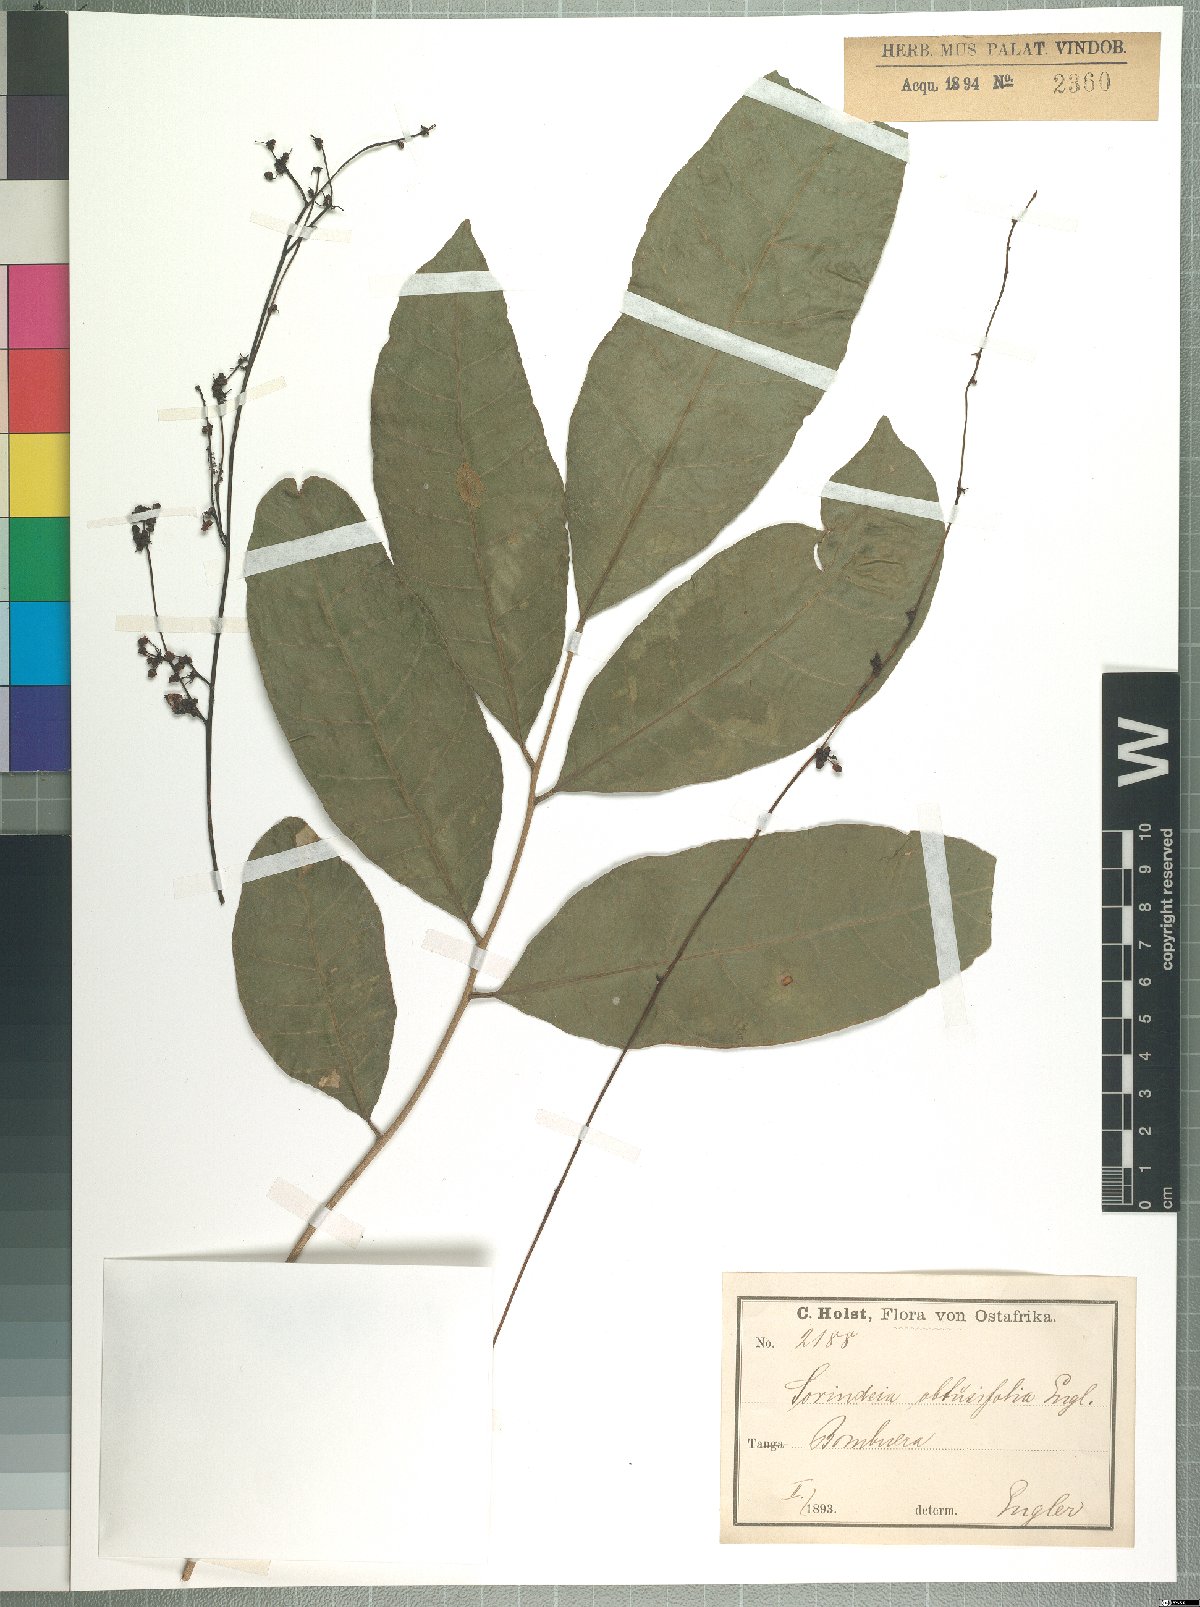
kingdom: Plantae
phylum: Tracheophyta
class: Magnoliopsida
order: Sapindales
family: Anacardiaceae
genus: Sorindeia
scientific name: Sorindeia madagascariensis
